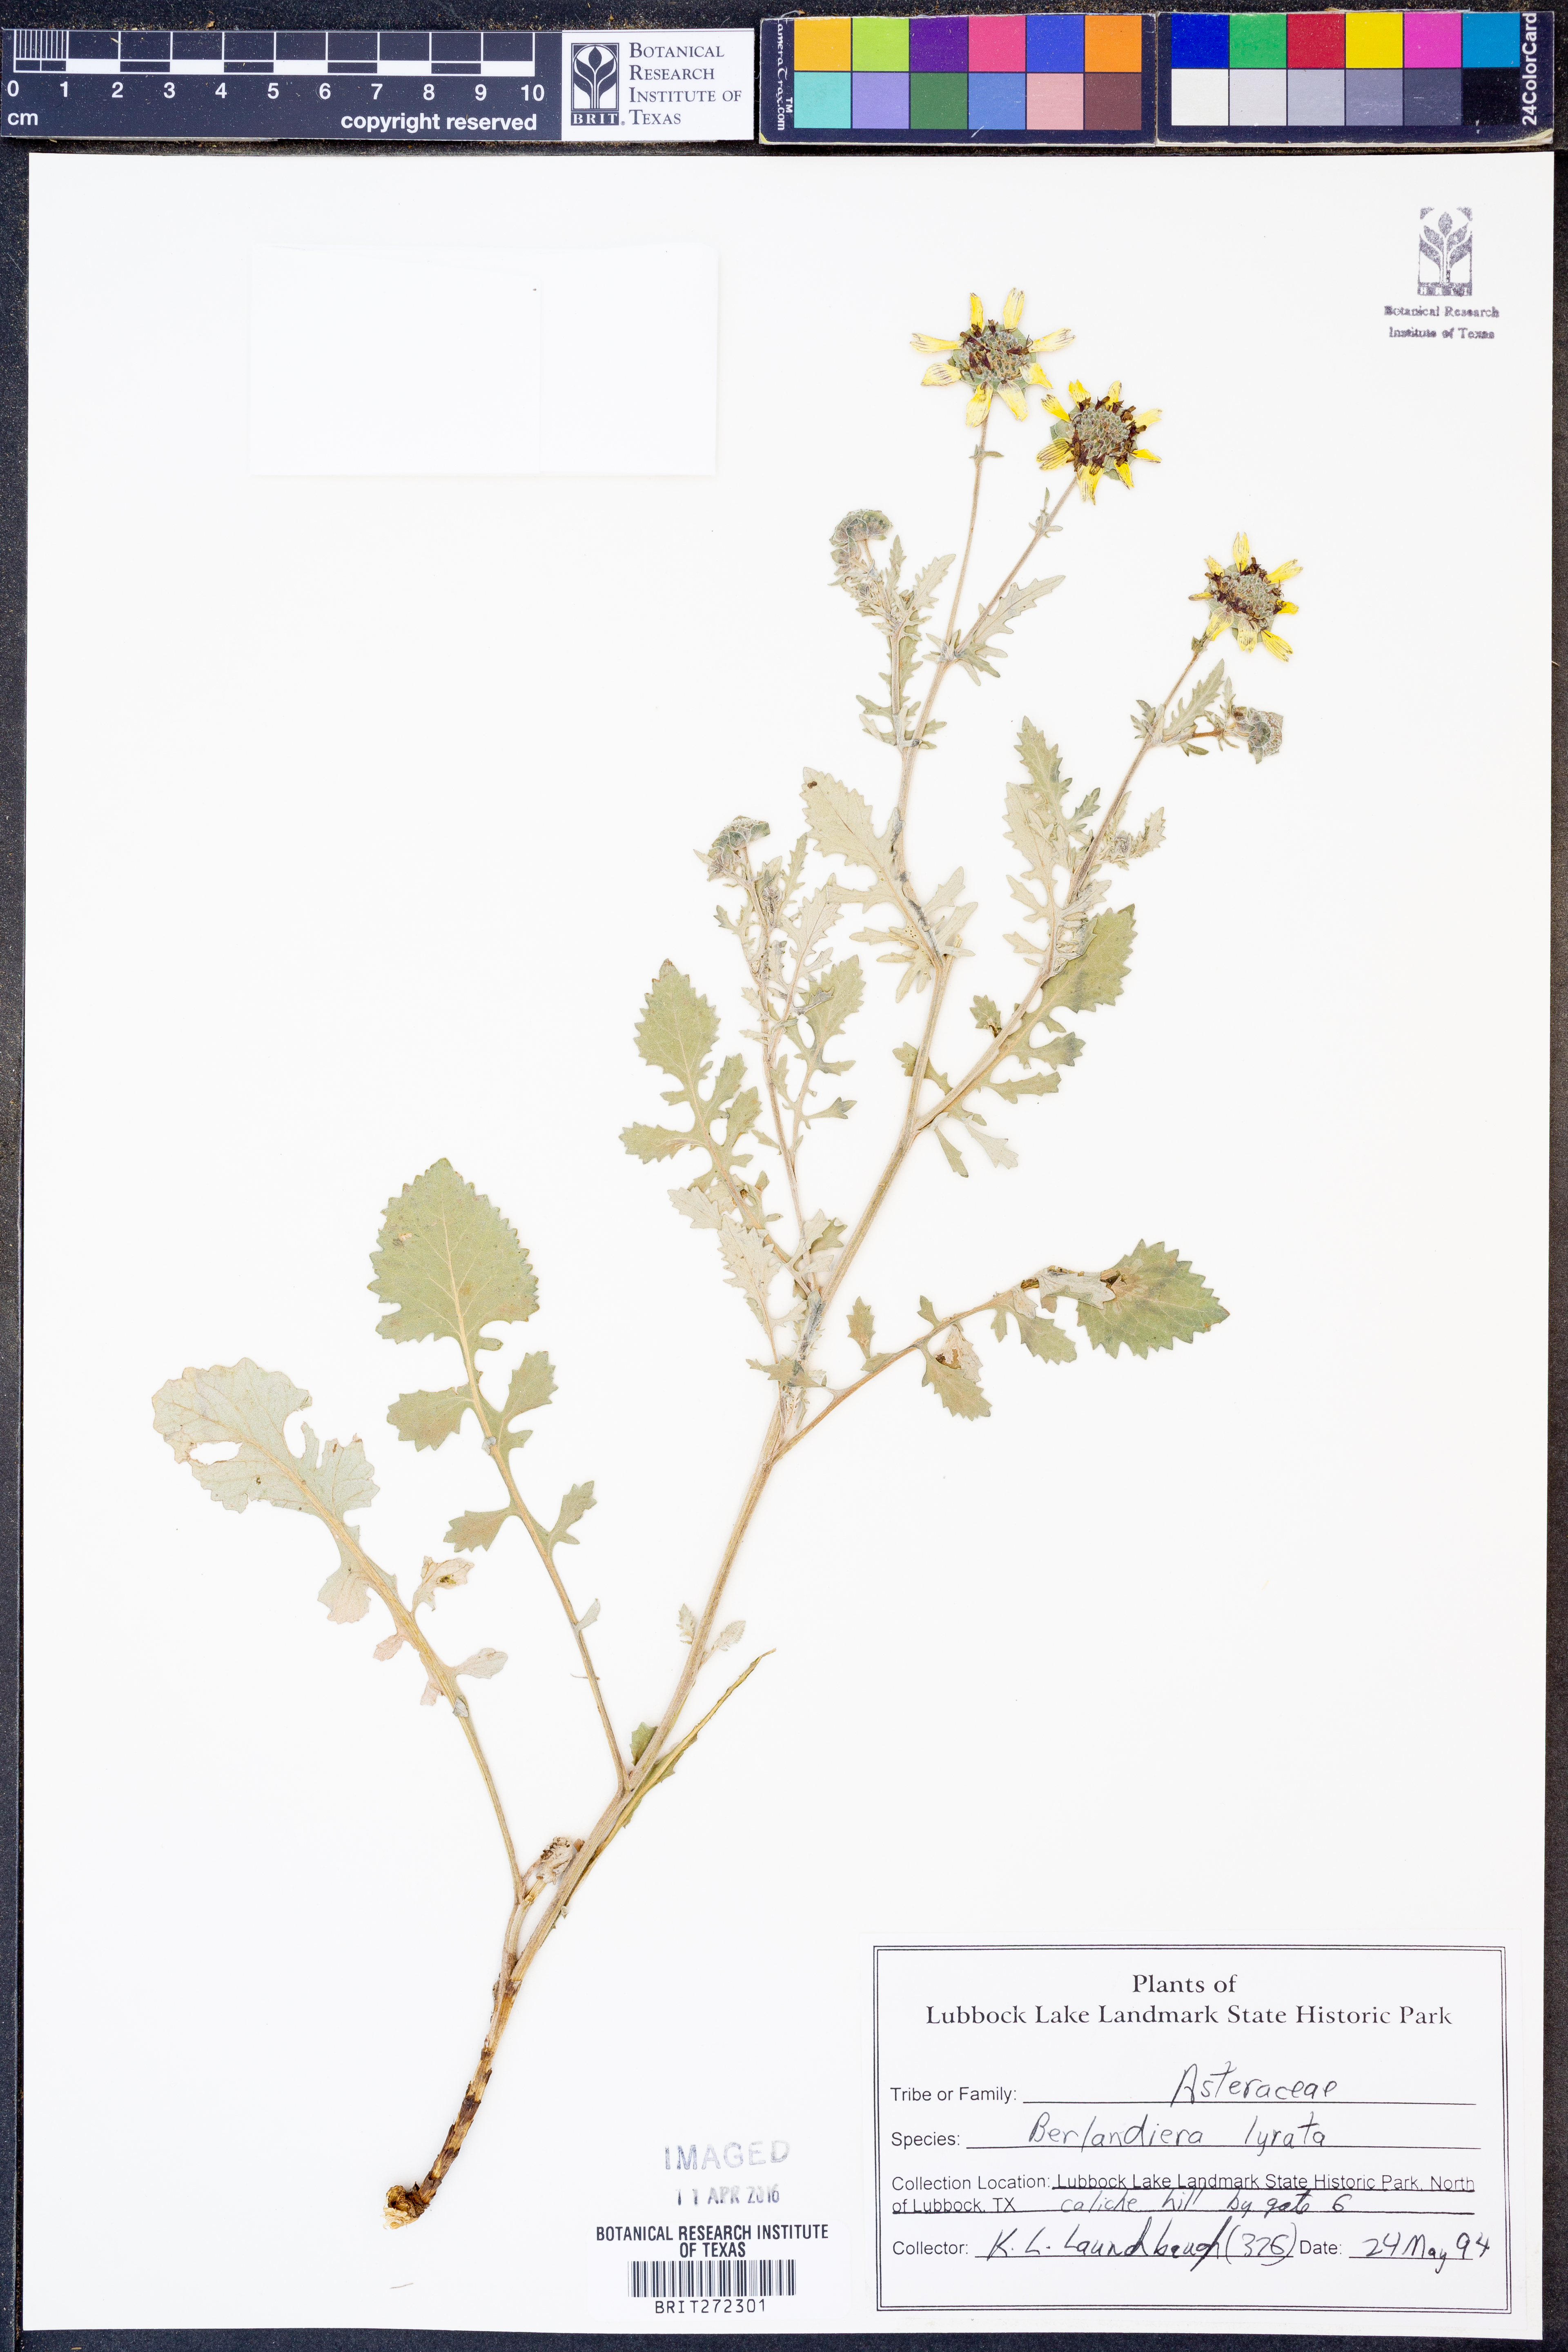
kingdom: Plantae
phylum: Tracheophyta
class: Magnoliopsida
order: Asterales
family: Asteraceae
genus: Berlandiera
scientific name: Berlandiera lyrata
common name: Chocolate-flower
